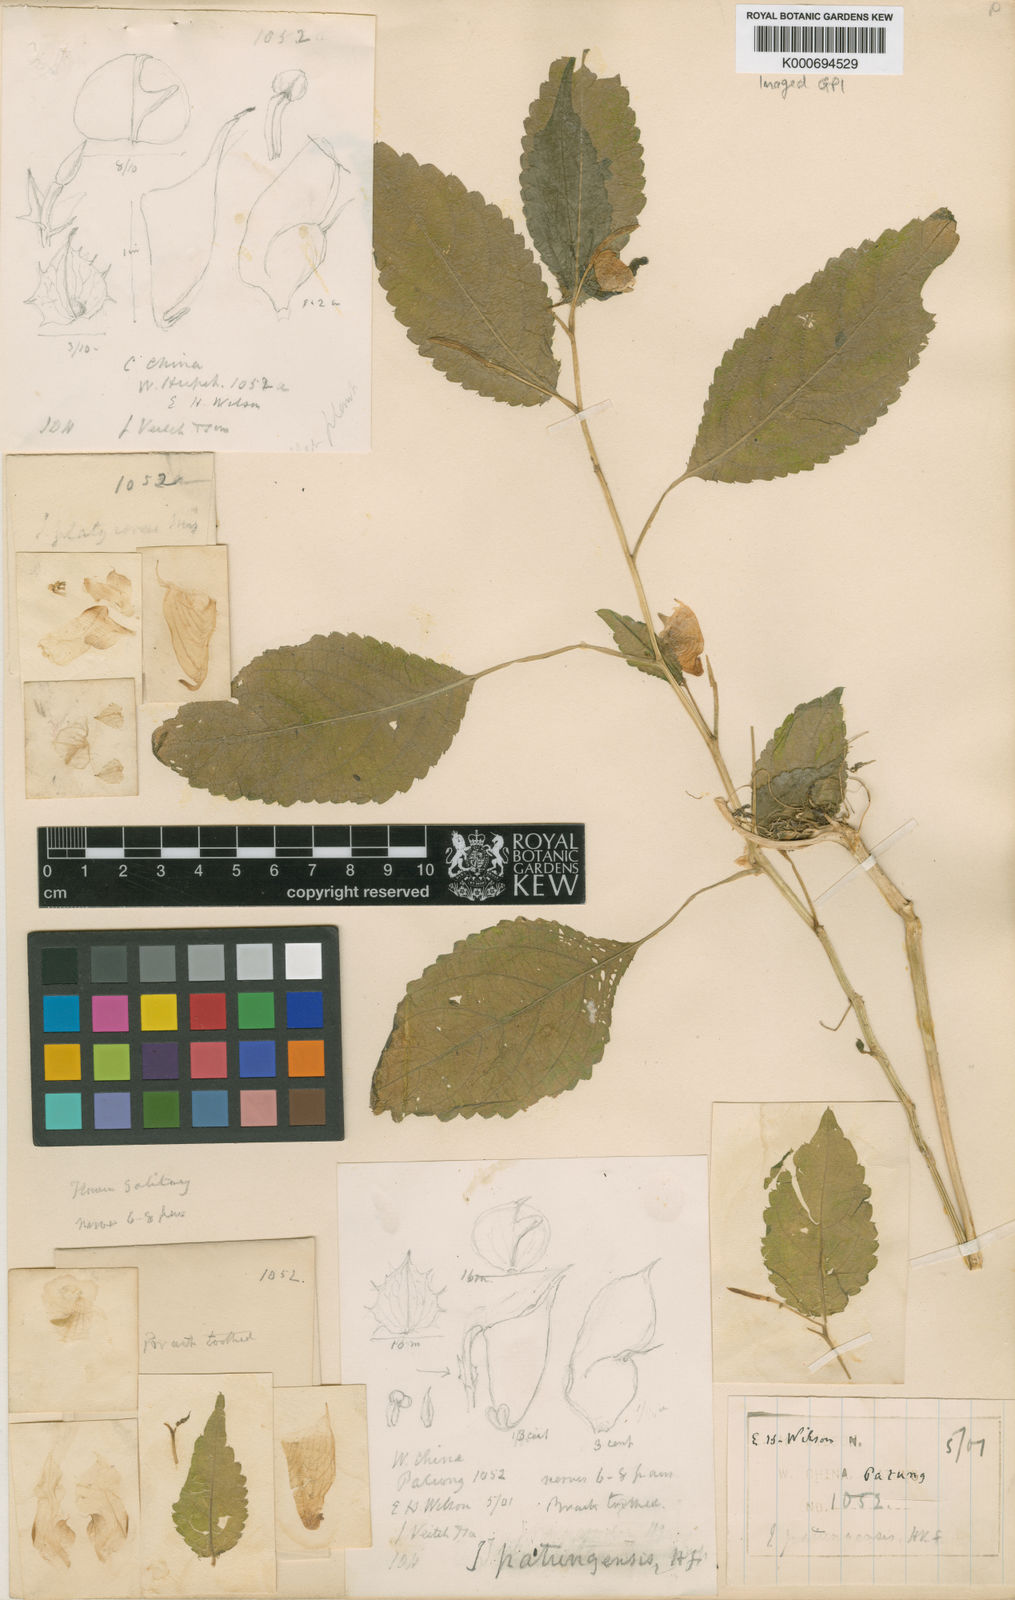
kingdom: Plantae
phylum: Tracheophyta
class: Magnoliopsida
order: Ericales
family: Balsaminaceae
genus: Impatiens
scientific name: Impatiens
